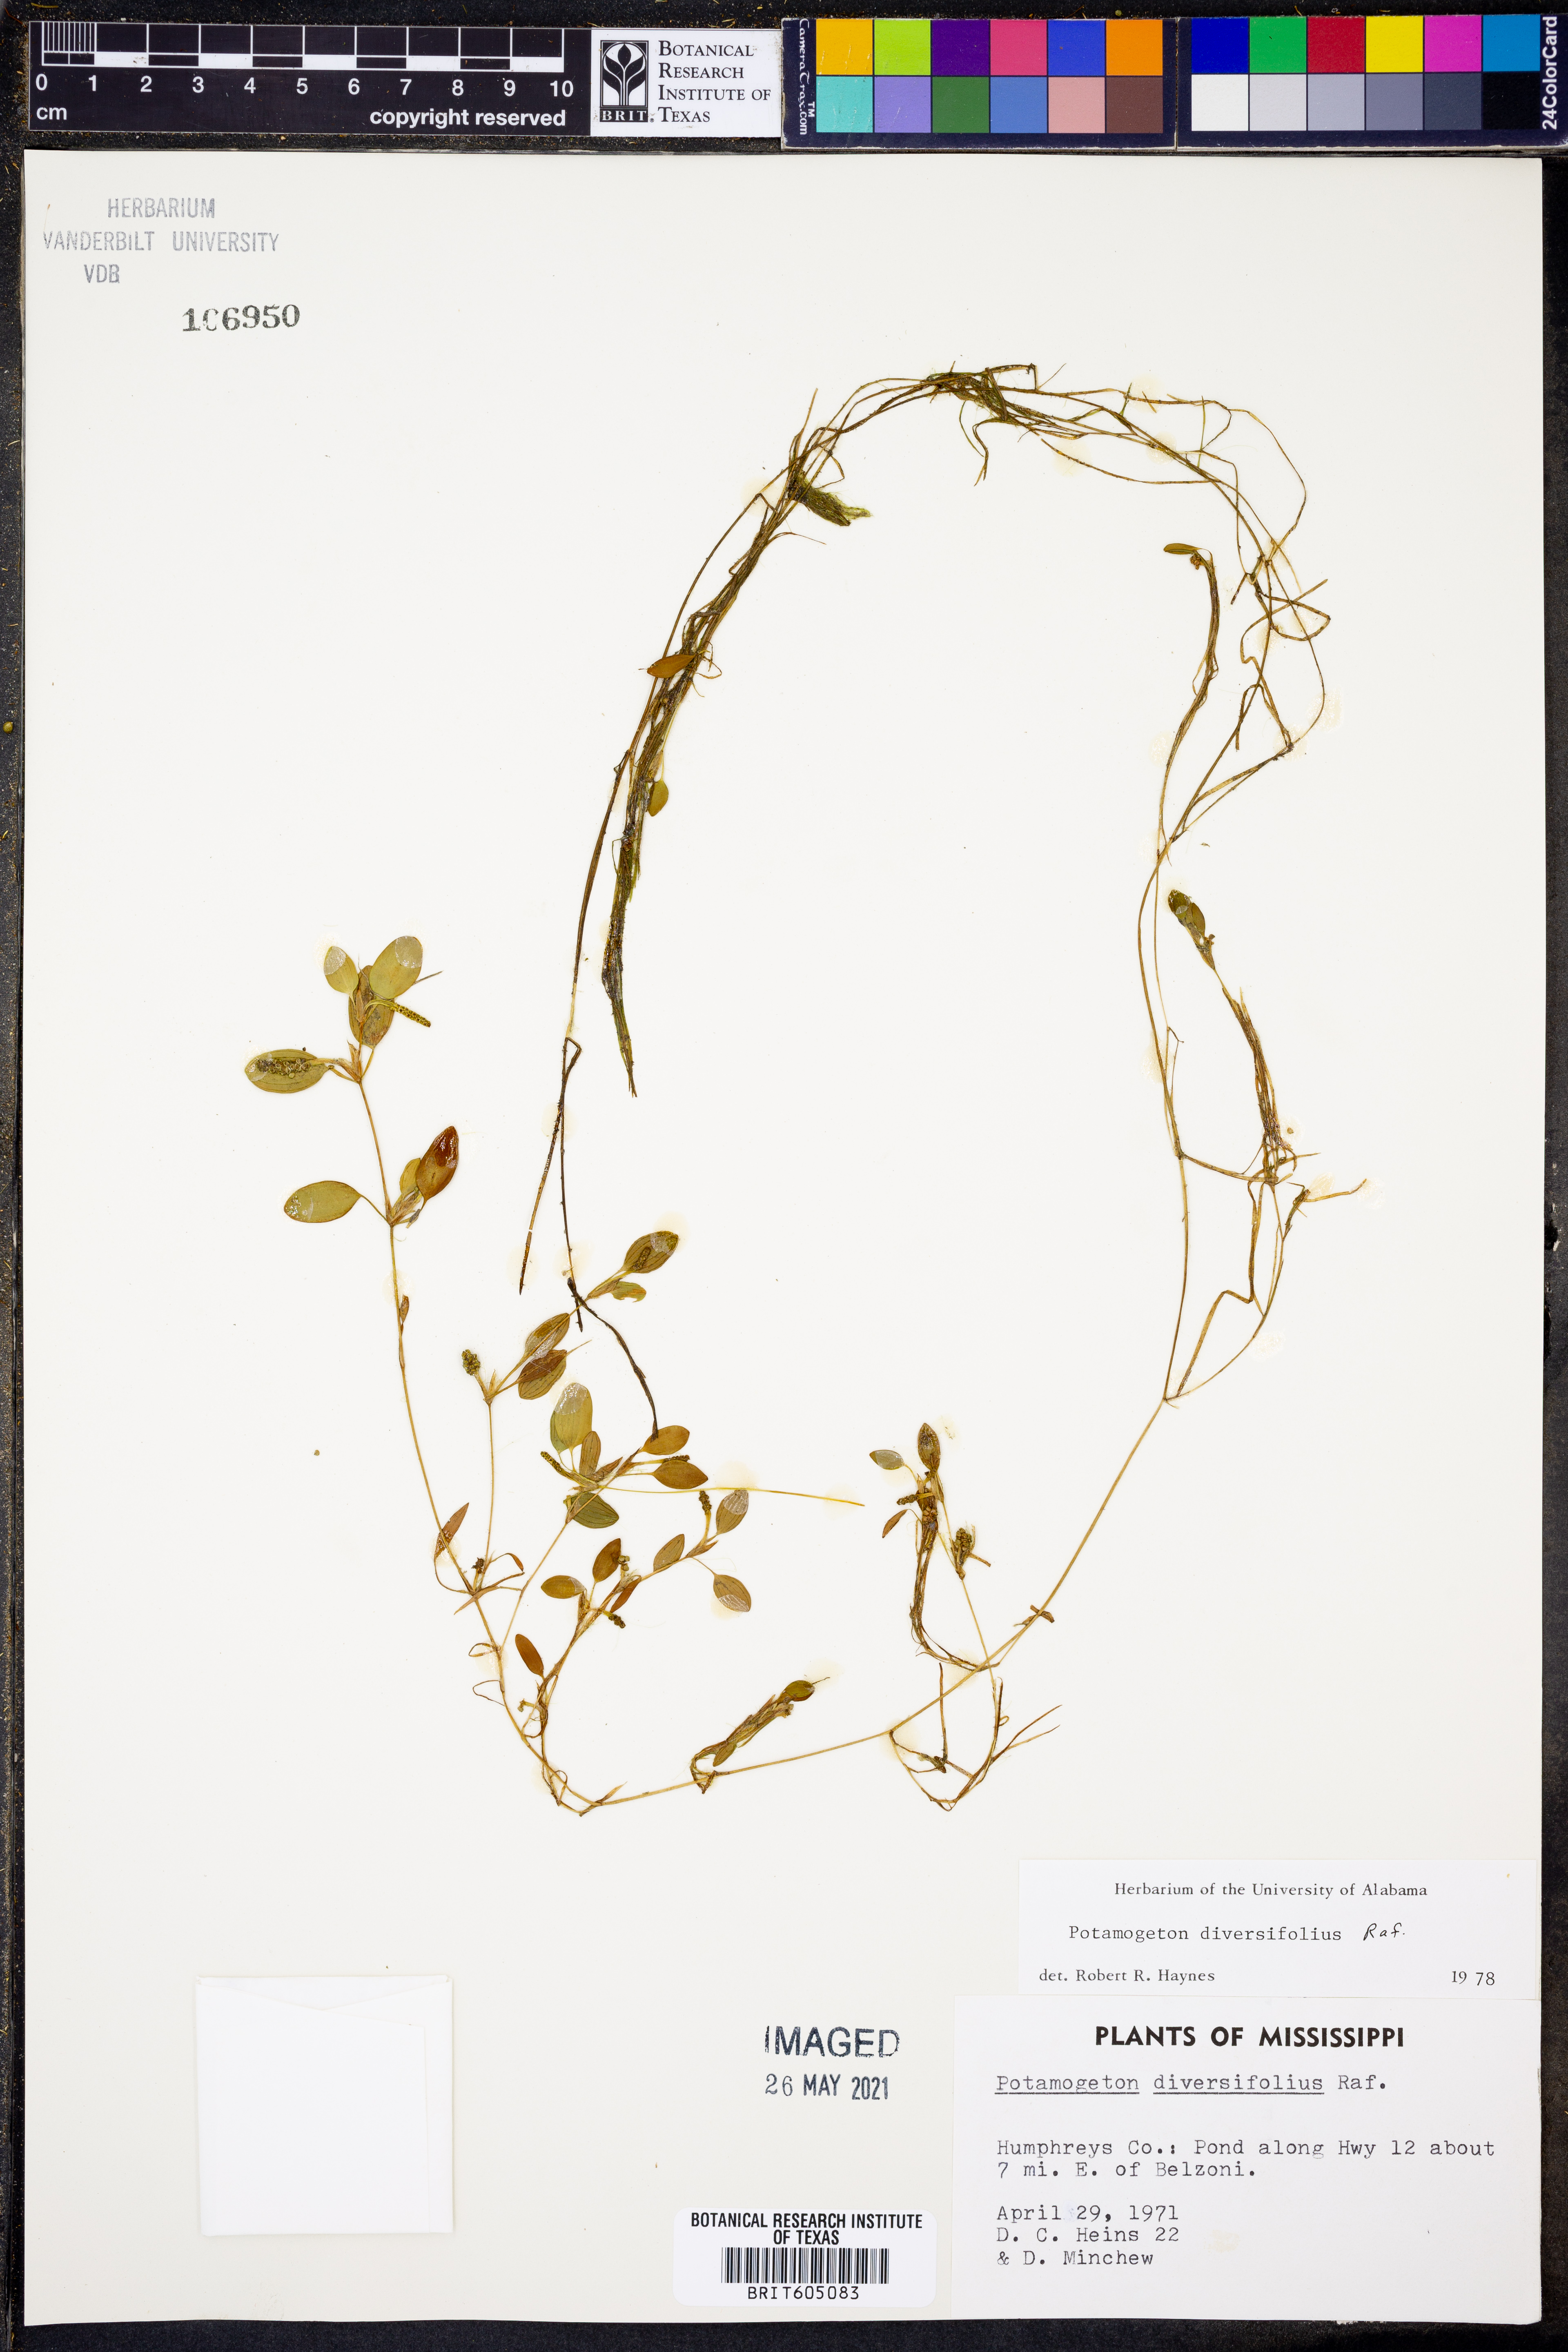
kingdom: Plantae
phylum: Tracheophyta
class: Liliopsida
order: Alismatales
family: Potamogetonaceae
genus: Potamogeton
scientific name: Potamogeton diversifolius
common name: Water-thread pondweed
